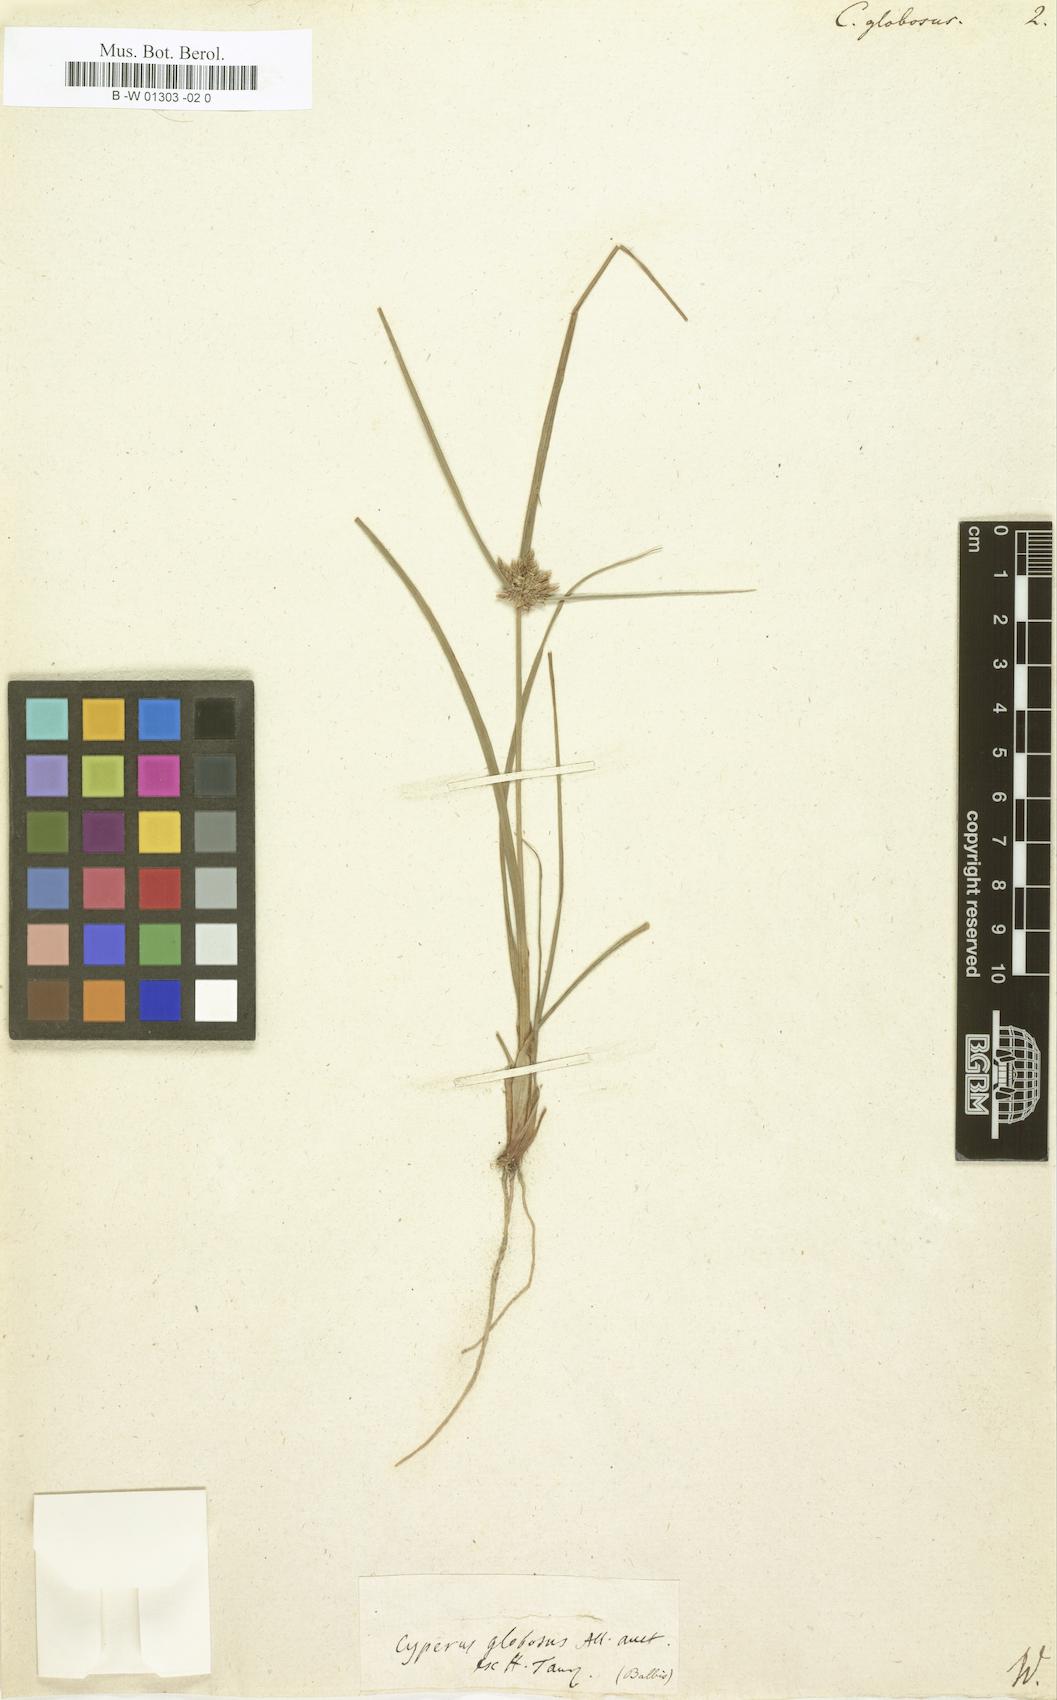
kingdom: Plantae
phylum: Tracheophyta
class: Liliopsida
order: Poales
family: Cyperaceae
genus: Cyperus
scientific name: Cyperus globosus
